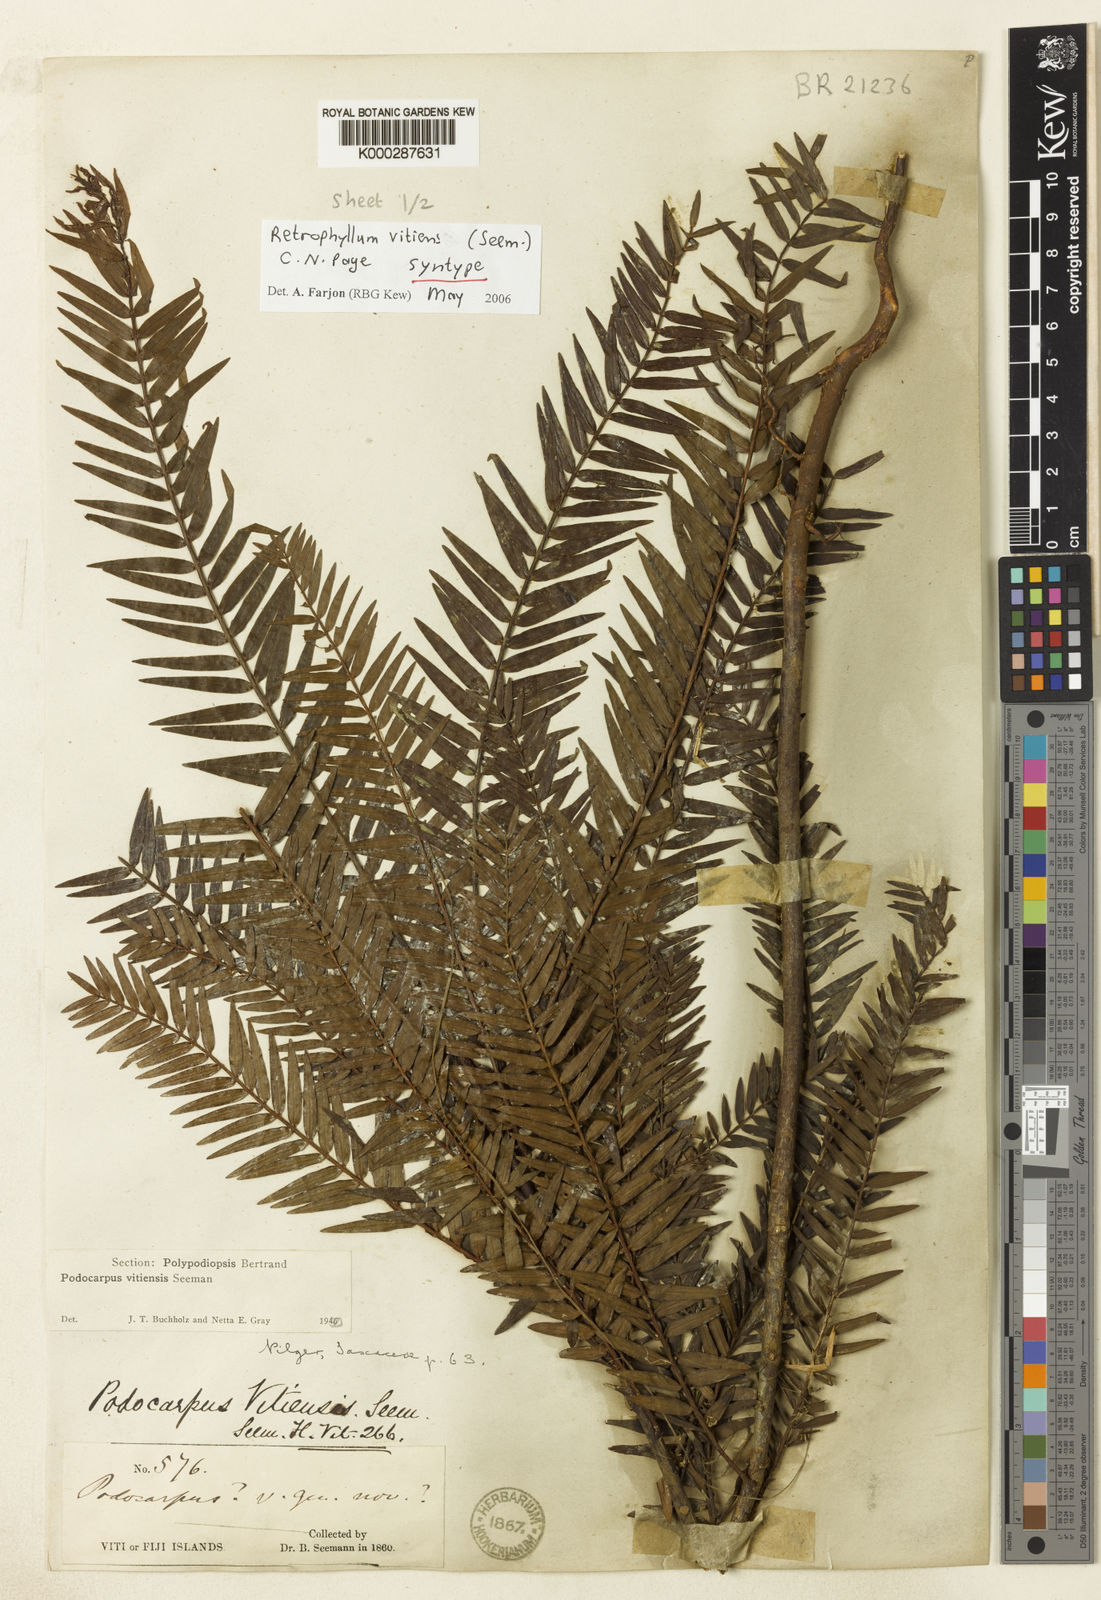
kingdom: Plantae
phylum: Tracheophyta
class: Pinopsida
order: Pinales
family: Podocarpaceae
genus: Retrophyllum
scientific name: Retrophyllum vitiense
